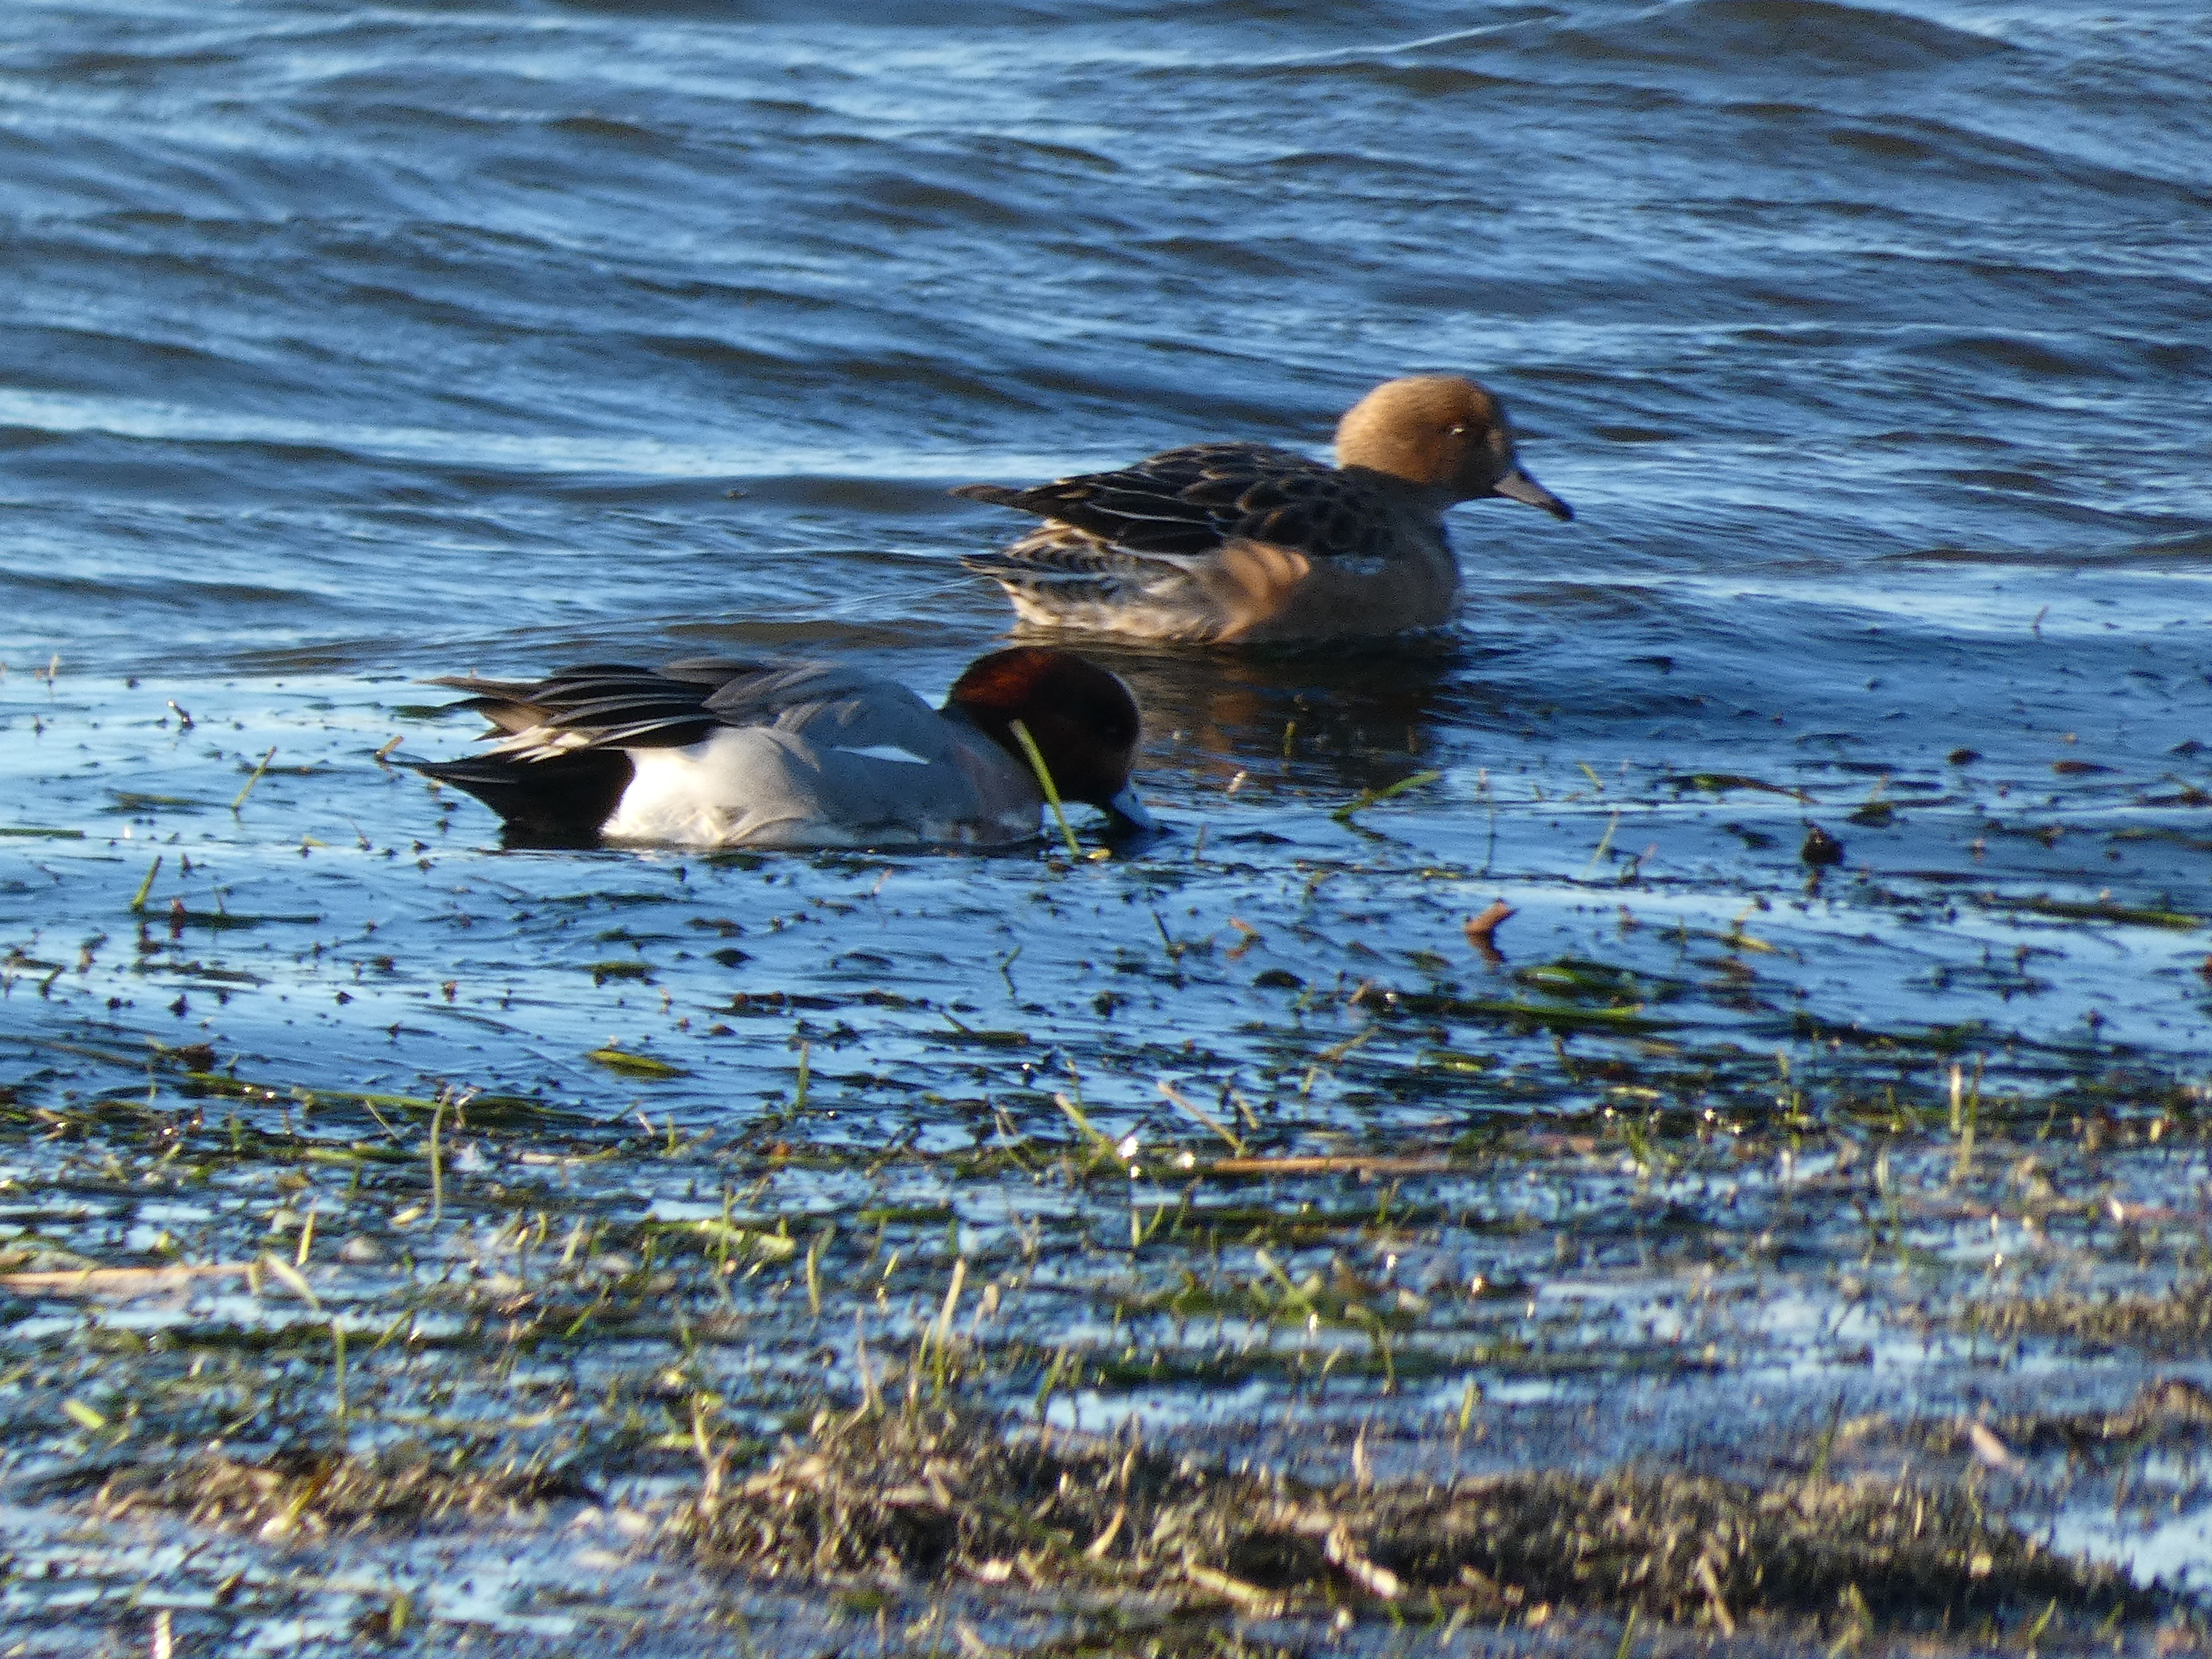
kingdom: Animalia
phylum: Chordata
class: Aves
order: Anseriformes
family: Anatidae
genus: Mareca
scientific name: Mareca penelope
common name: Pibeand
